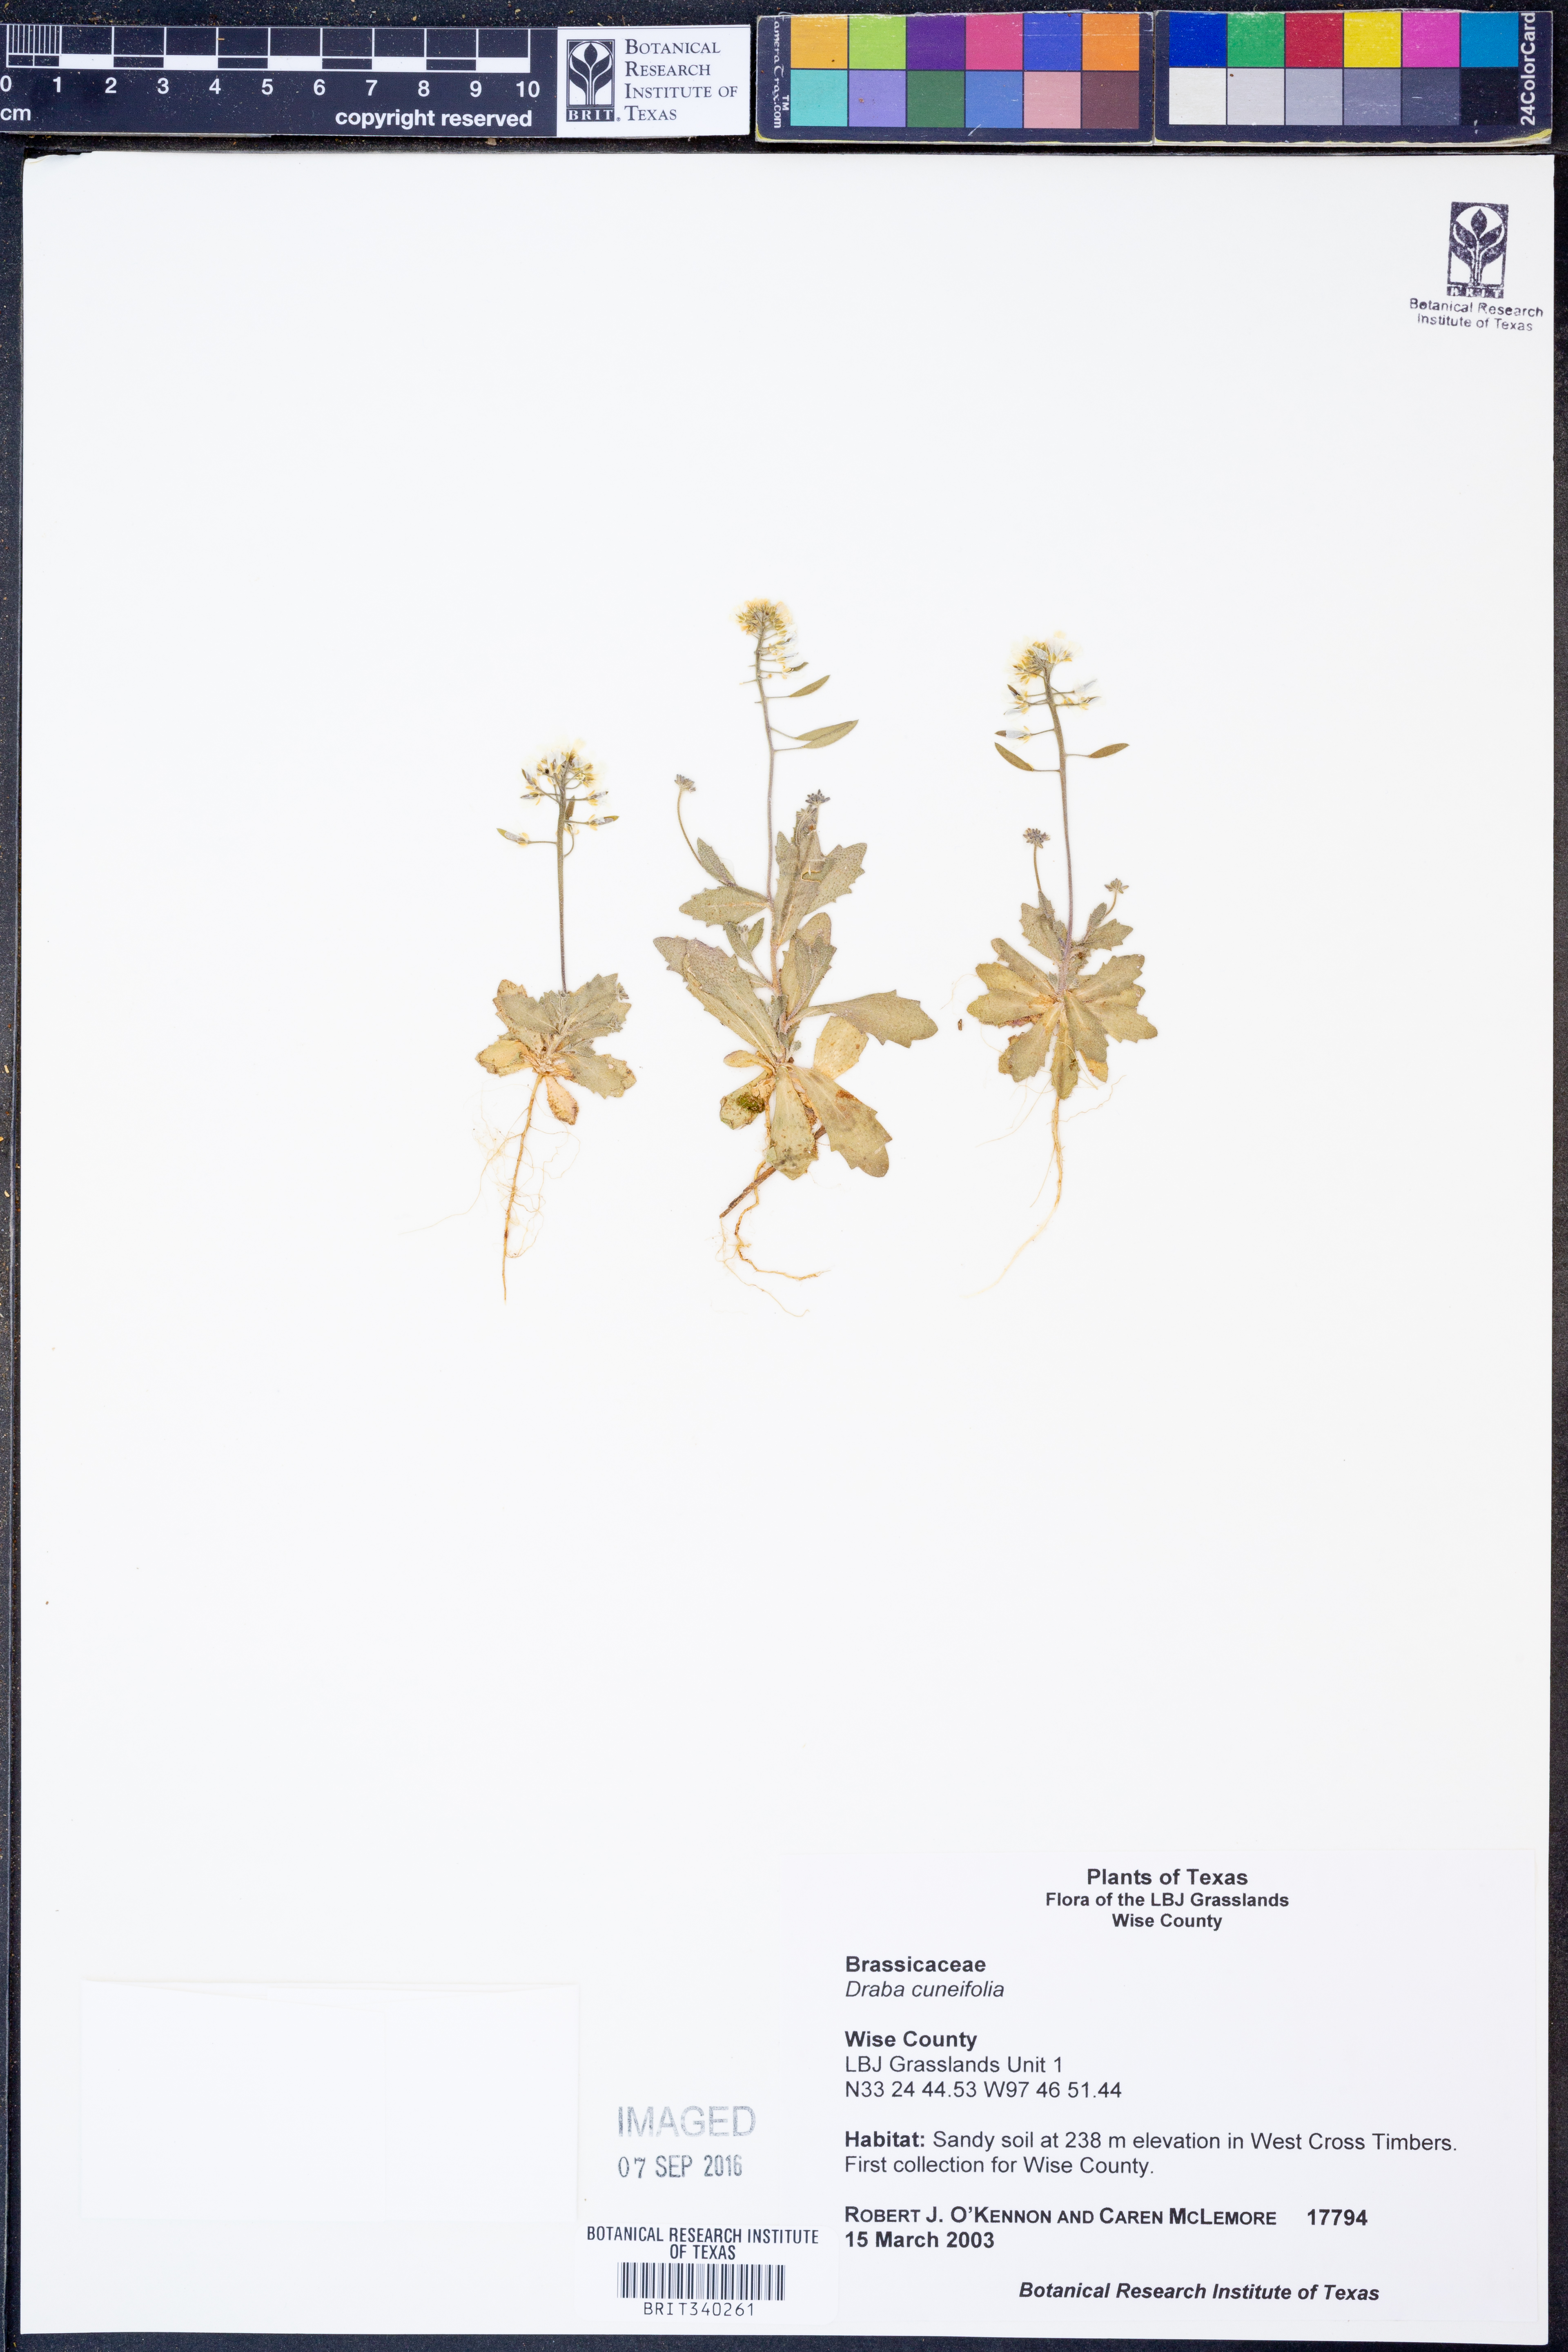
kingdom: Plantae
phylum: Tracheophyta
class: Magnoliopsida
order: Brassicales
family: Brassicaceae
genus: Tomostima
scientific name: Tomostima cuneifolia
